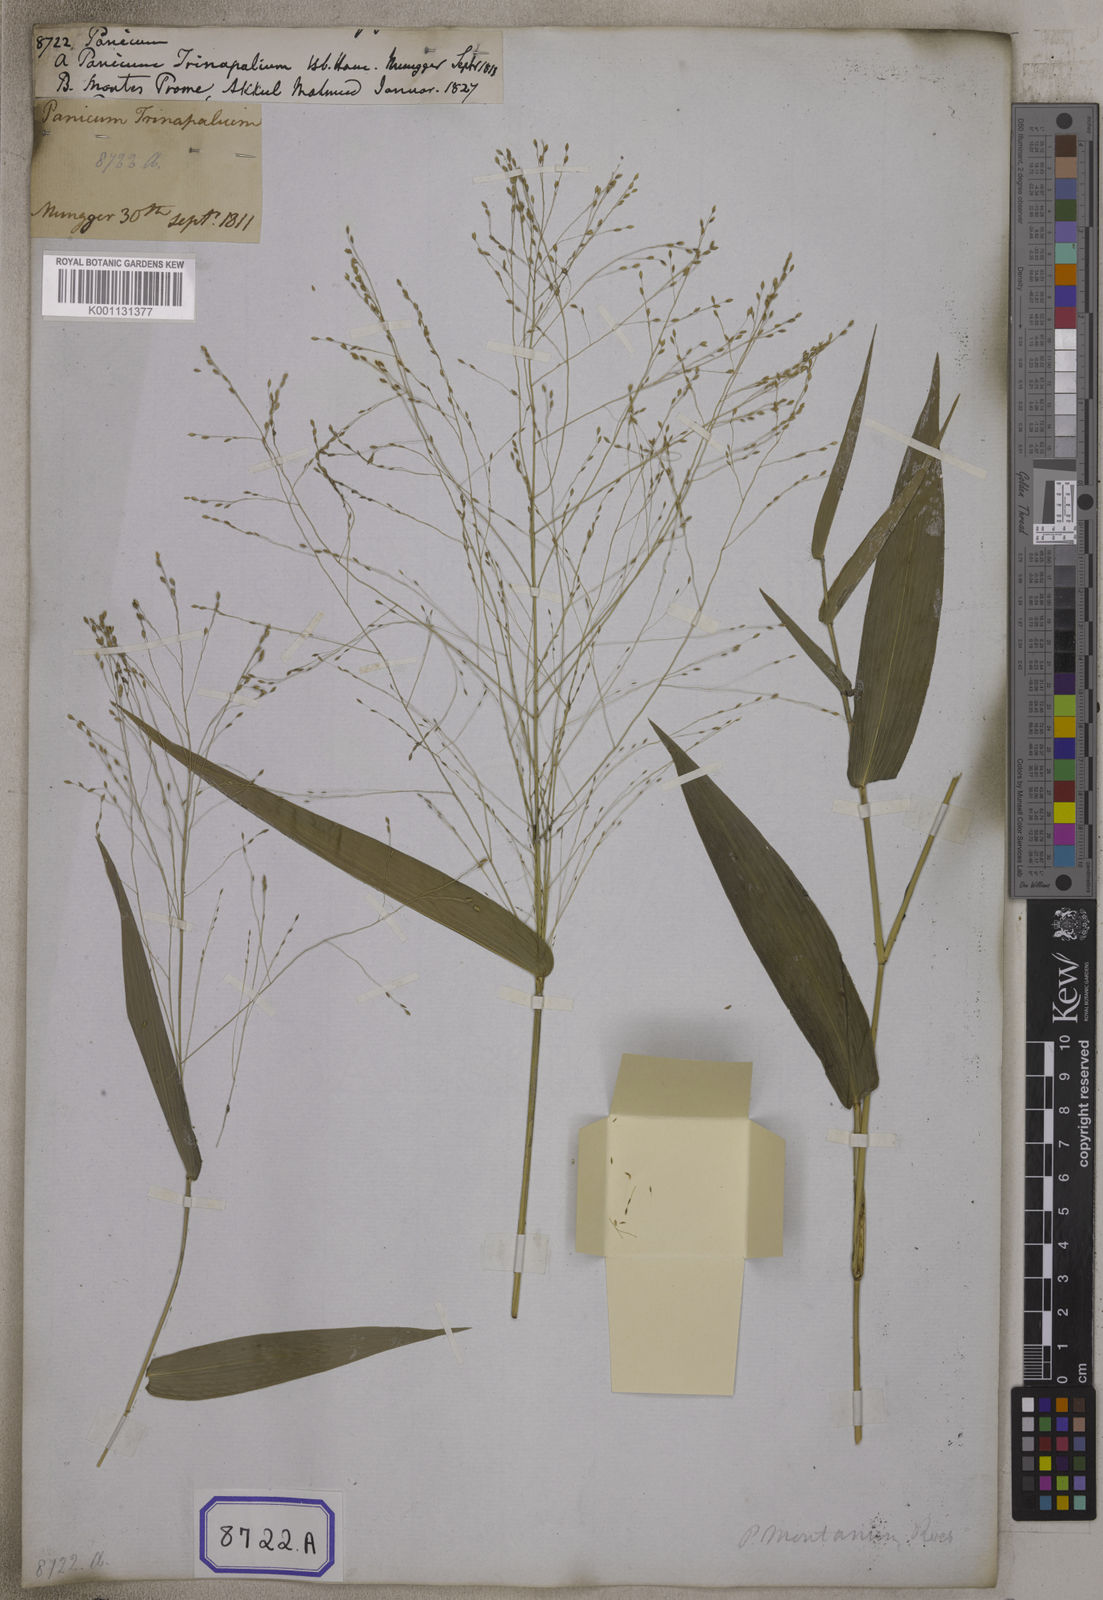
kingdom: Plantae
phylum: Tracheophyta
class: Liliopsida
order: Poales
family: Poaceae
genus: Panicum
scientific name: Panicum
